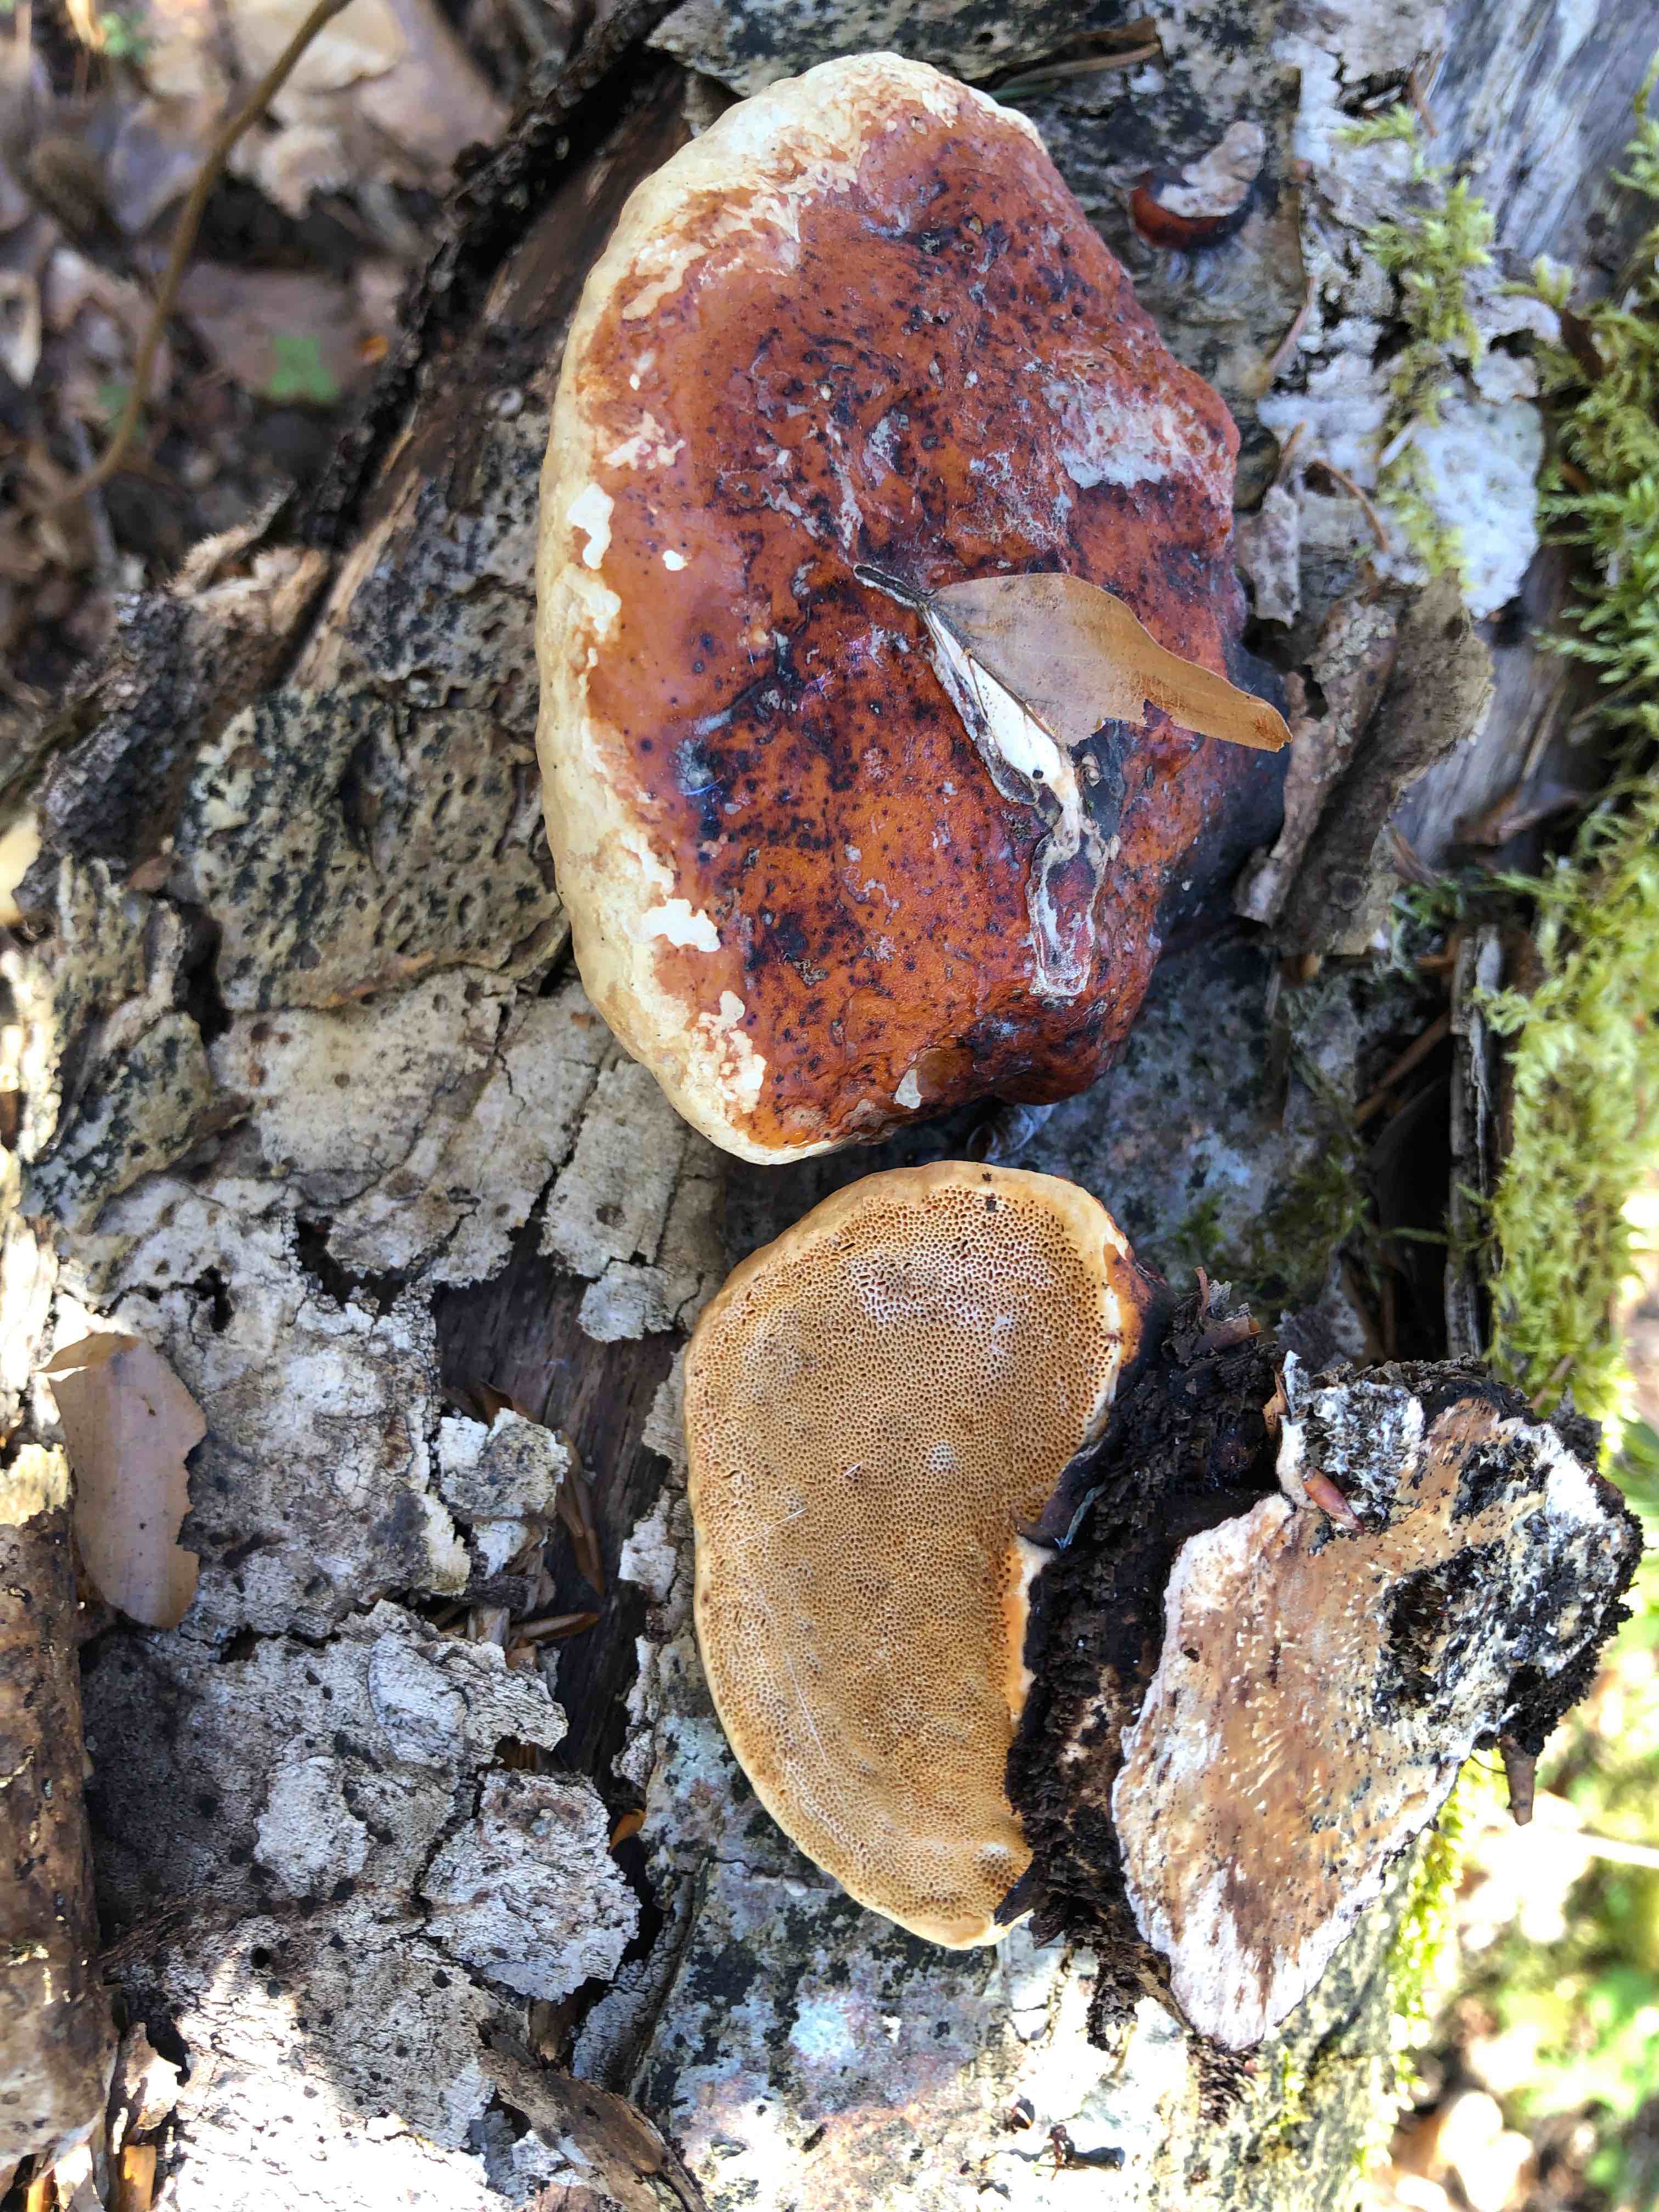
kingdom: Fungi
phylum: Basidiomycota
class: Agaricomycetes
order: Polyporales
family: Fomitopsidaceae
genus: Fomitopsis
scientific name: Fomitopsis pinicola
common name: randbæltet hovporesvamp
